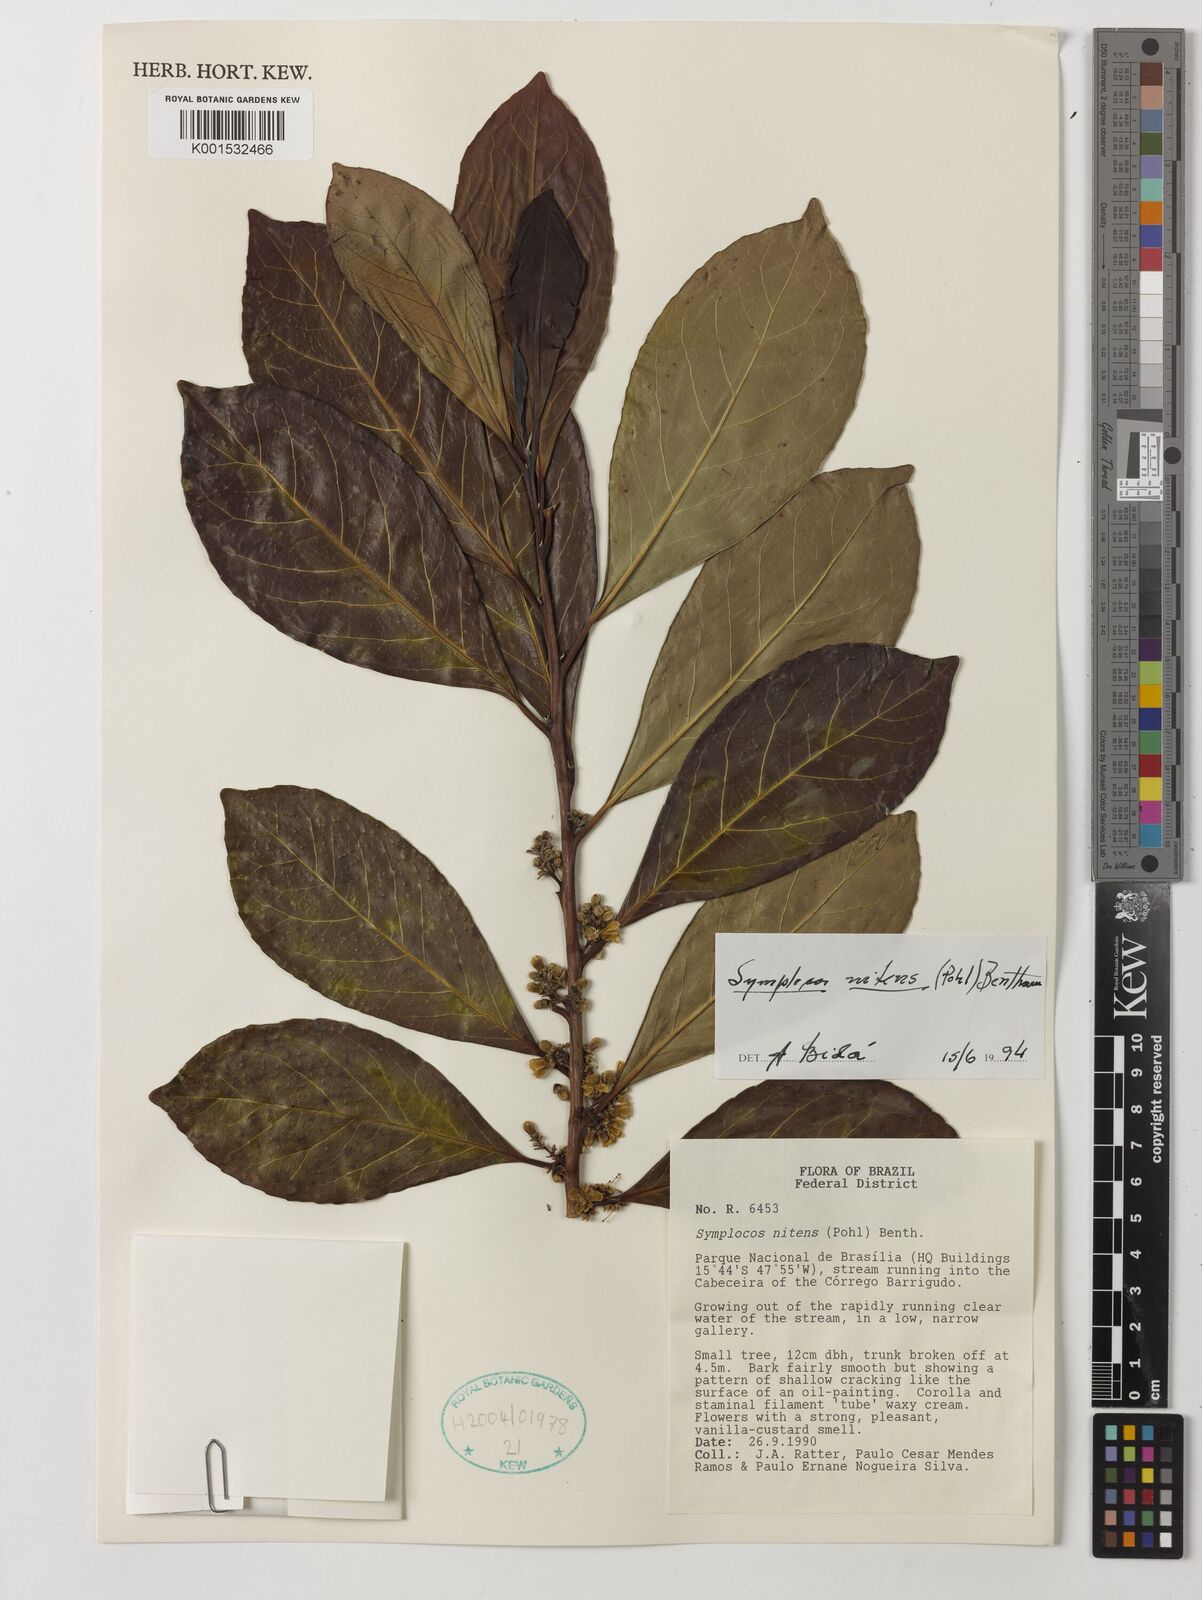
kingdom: Plantae
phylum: Tracheophyta
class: Magnoliopsida
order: Ericales
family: Symplocaceae
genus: Symplocos
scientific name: Symplocos nitens
